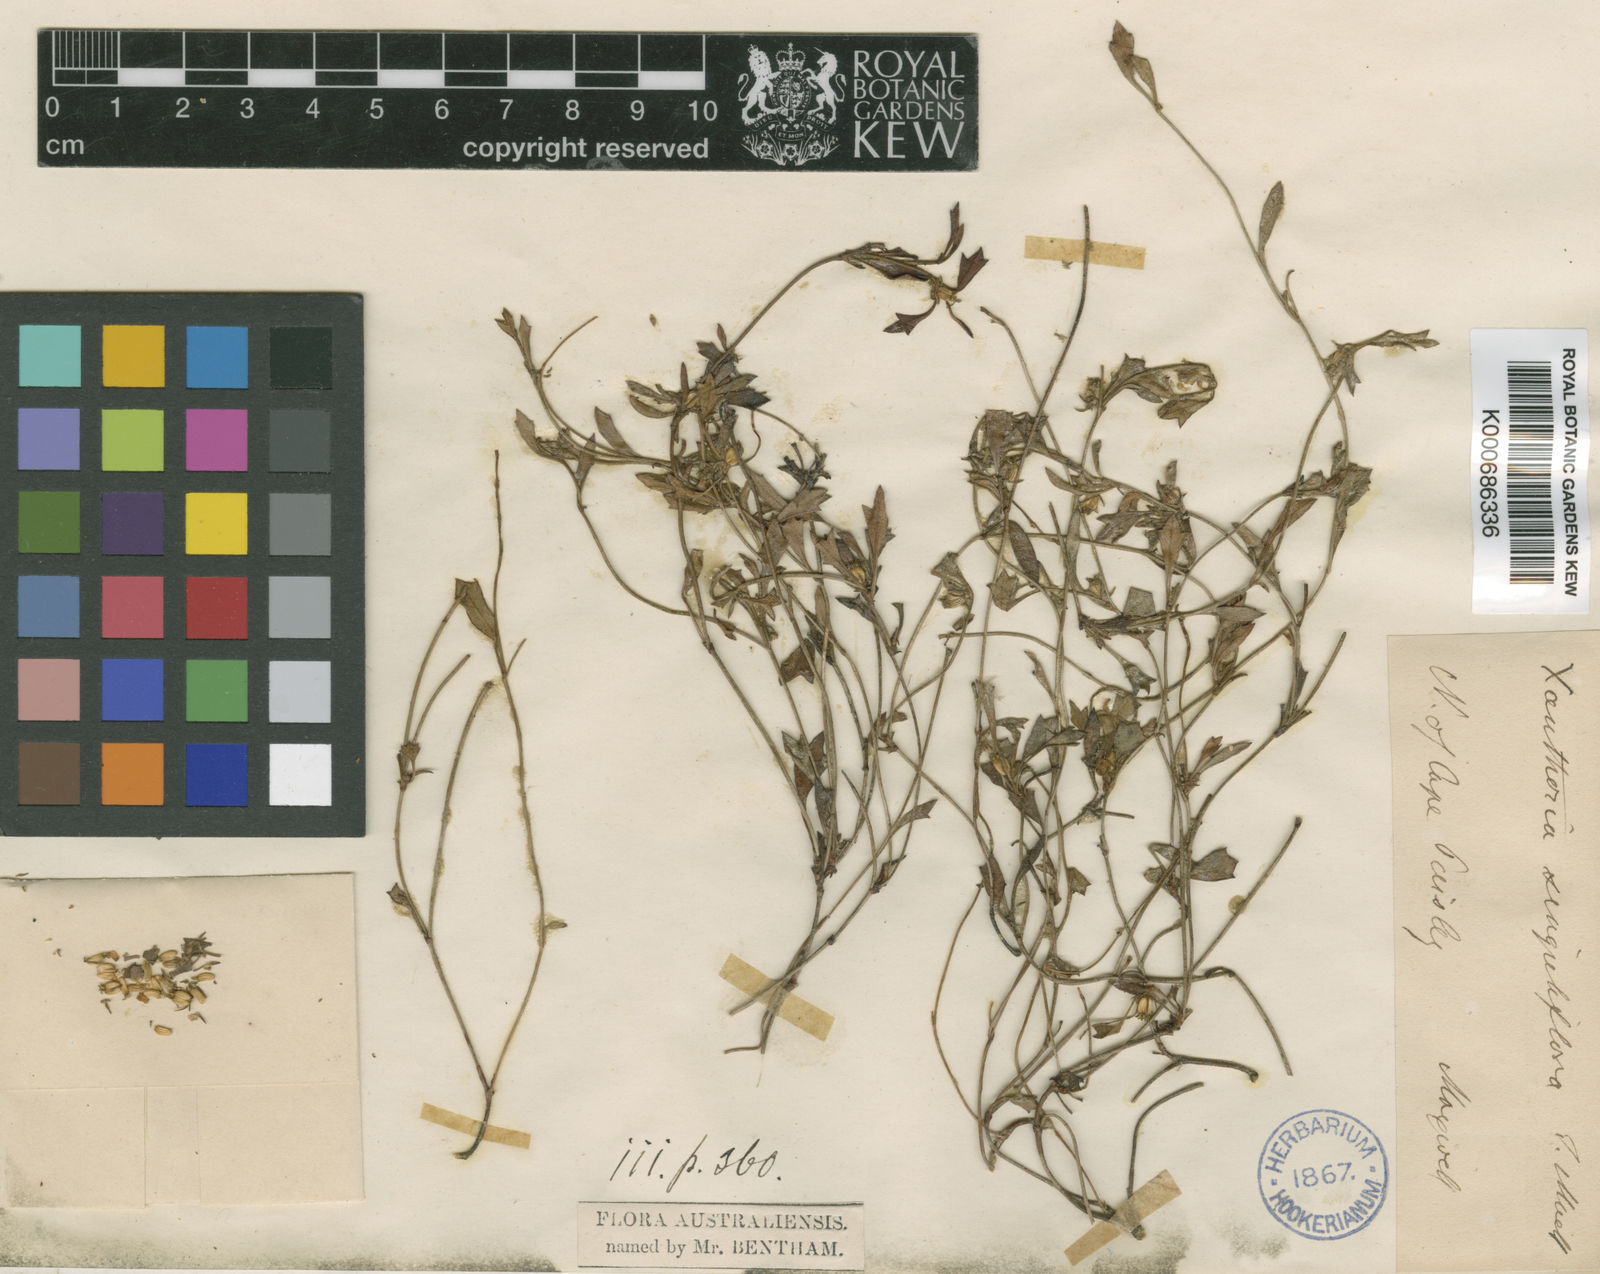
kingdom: Plantae
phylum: Tracheophyta
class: Magnoliopsida
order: Apiales
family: Apiaceae
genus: Xanthosia
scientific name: Xanthosia singuliflora
